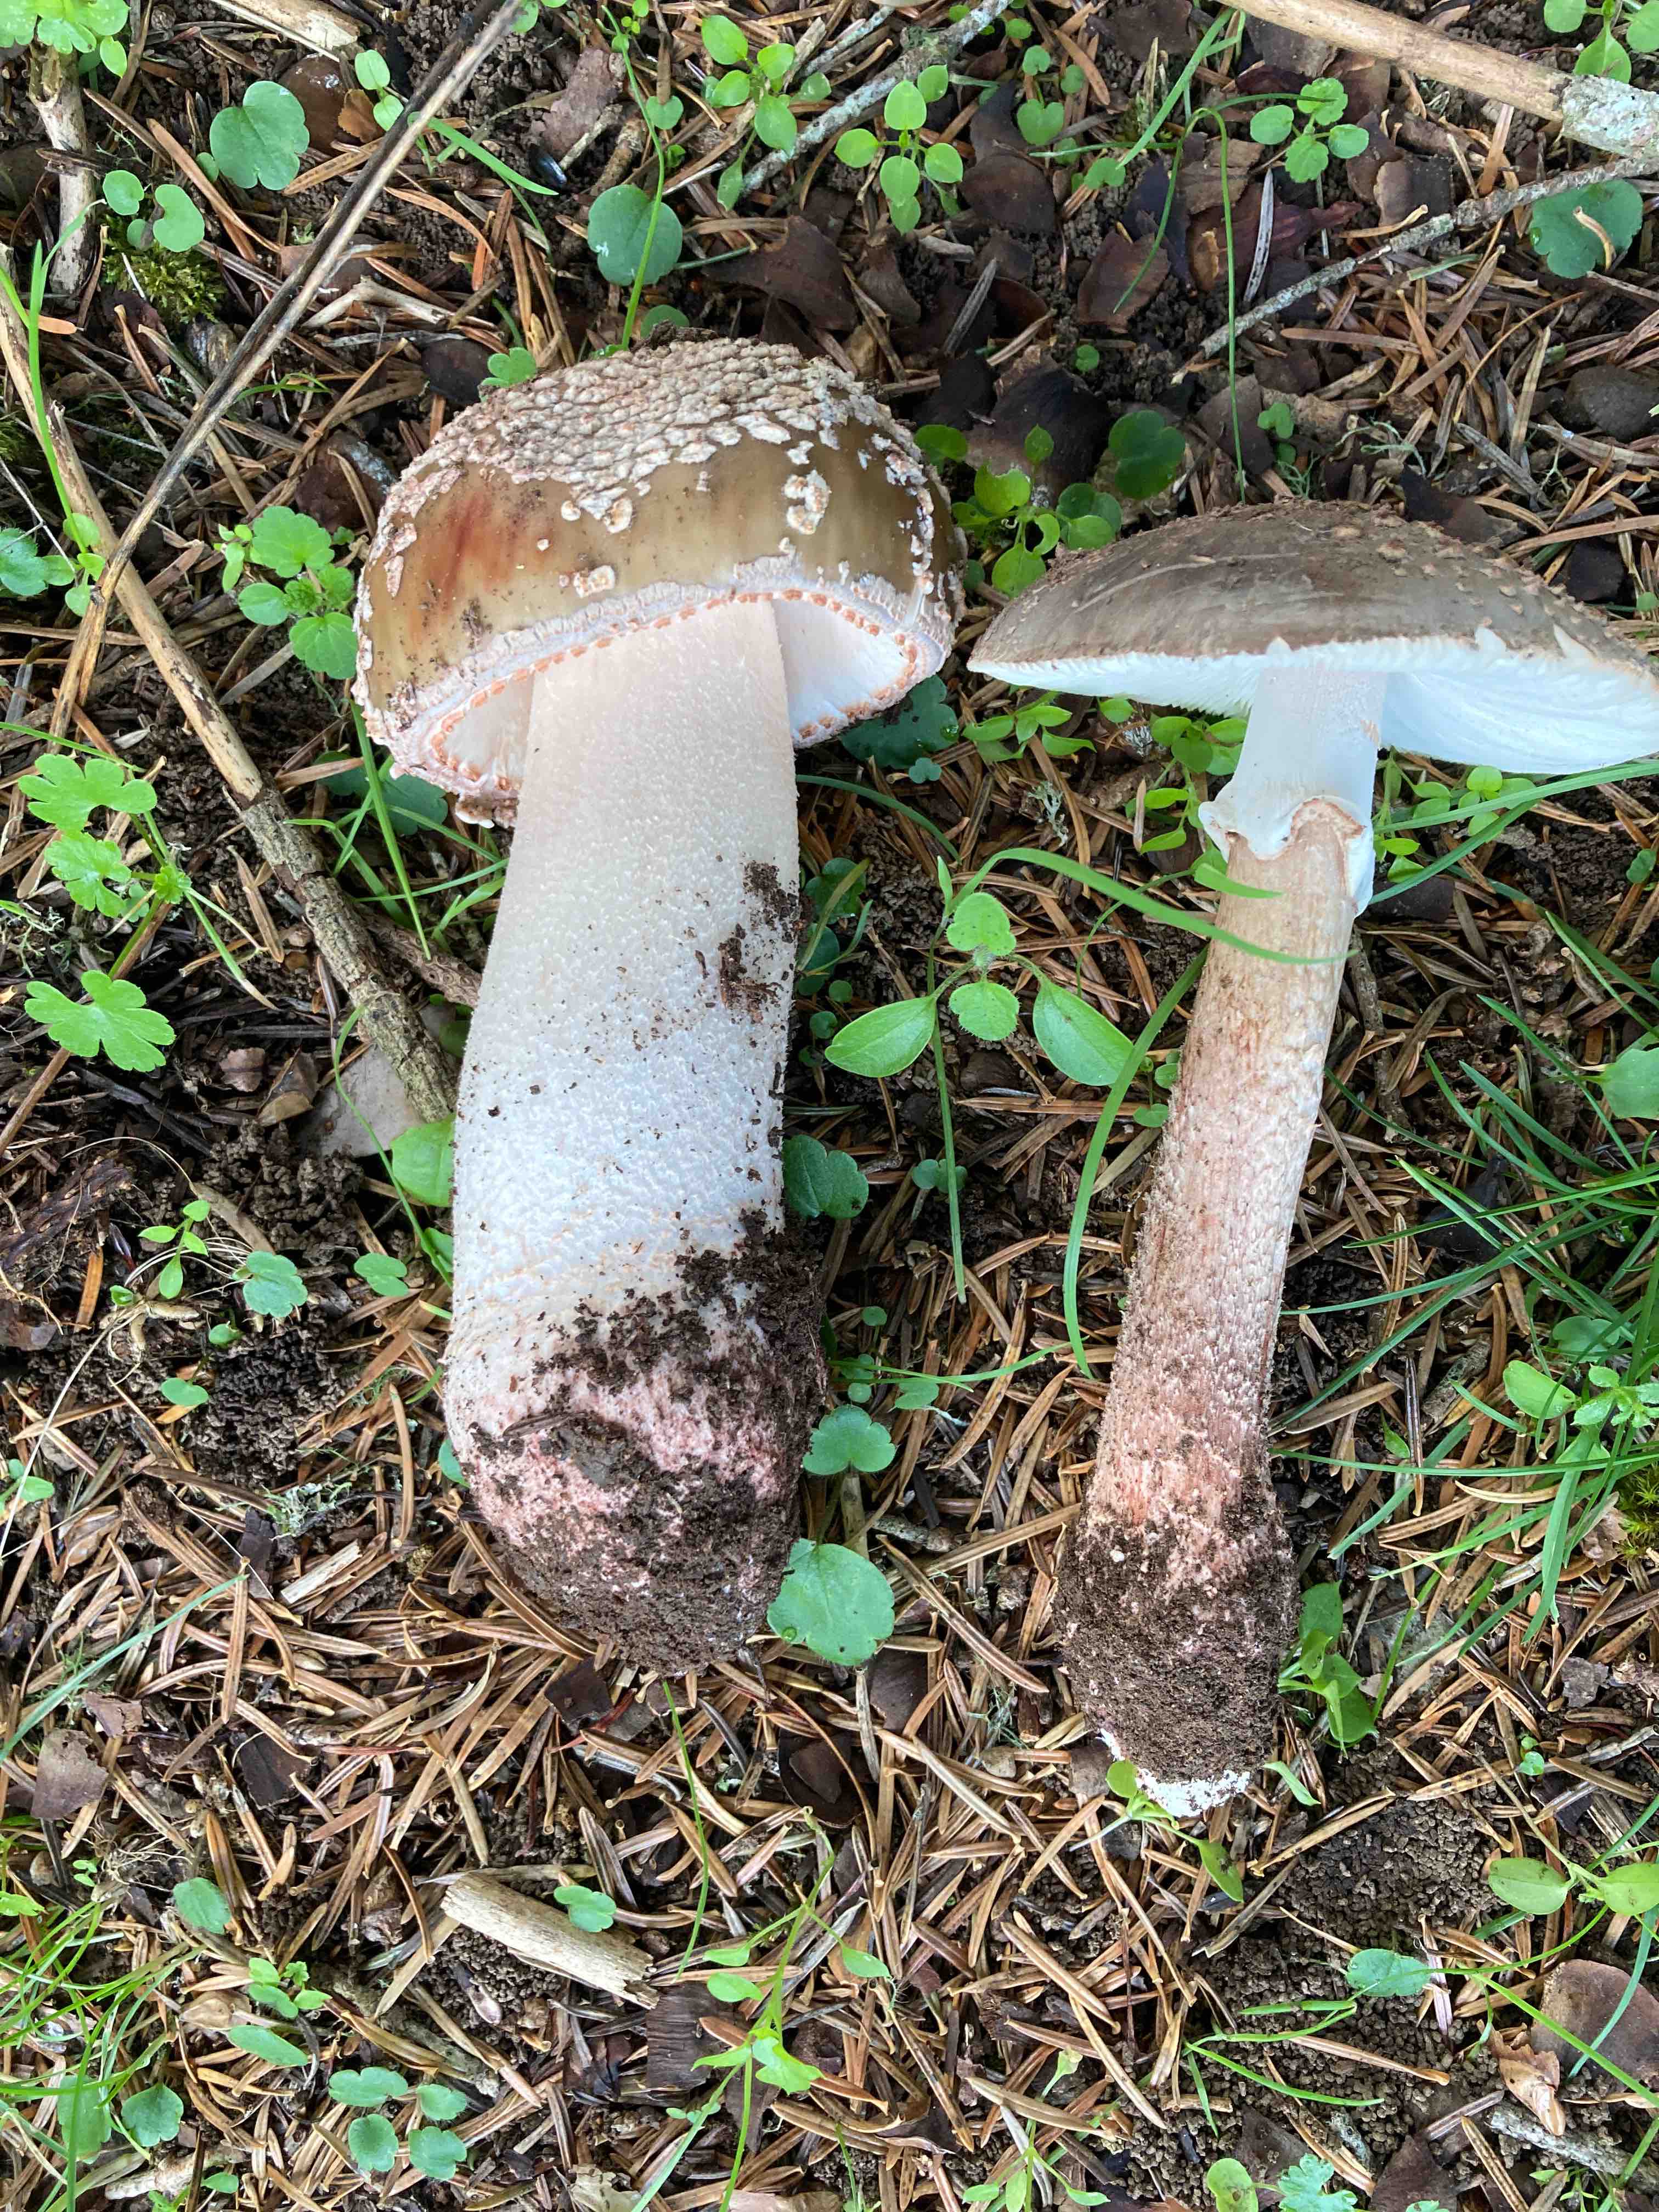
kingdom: Fungi
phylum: Basidiomycota
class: Agaricomycetes
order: Agaricales
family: Amanitaceae
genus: Amanita
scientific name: Amanita rubescens
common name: rødmende fluesvamp
